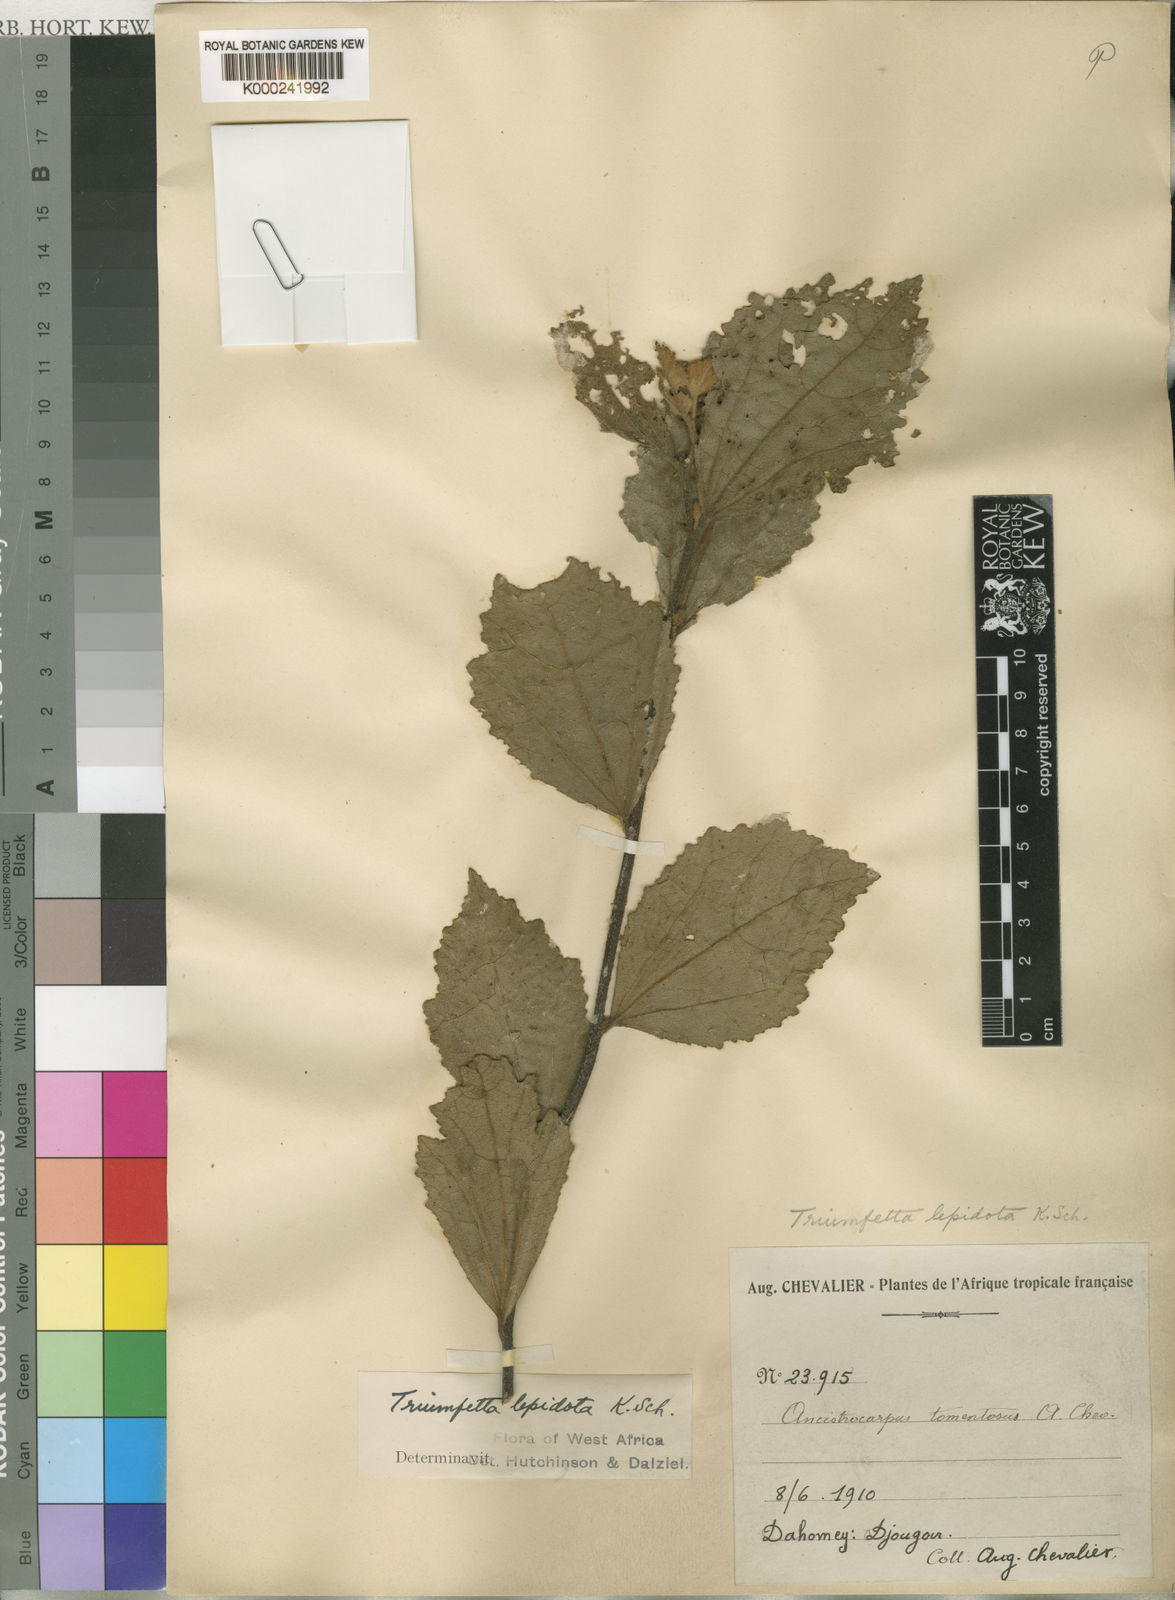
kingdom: Plantae
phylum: Tracheophyta
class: Magnoliopsida
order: Malvales
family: Malvaceae
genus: Triumfetta
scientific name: Triumfetta lepidota
